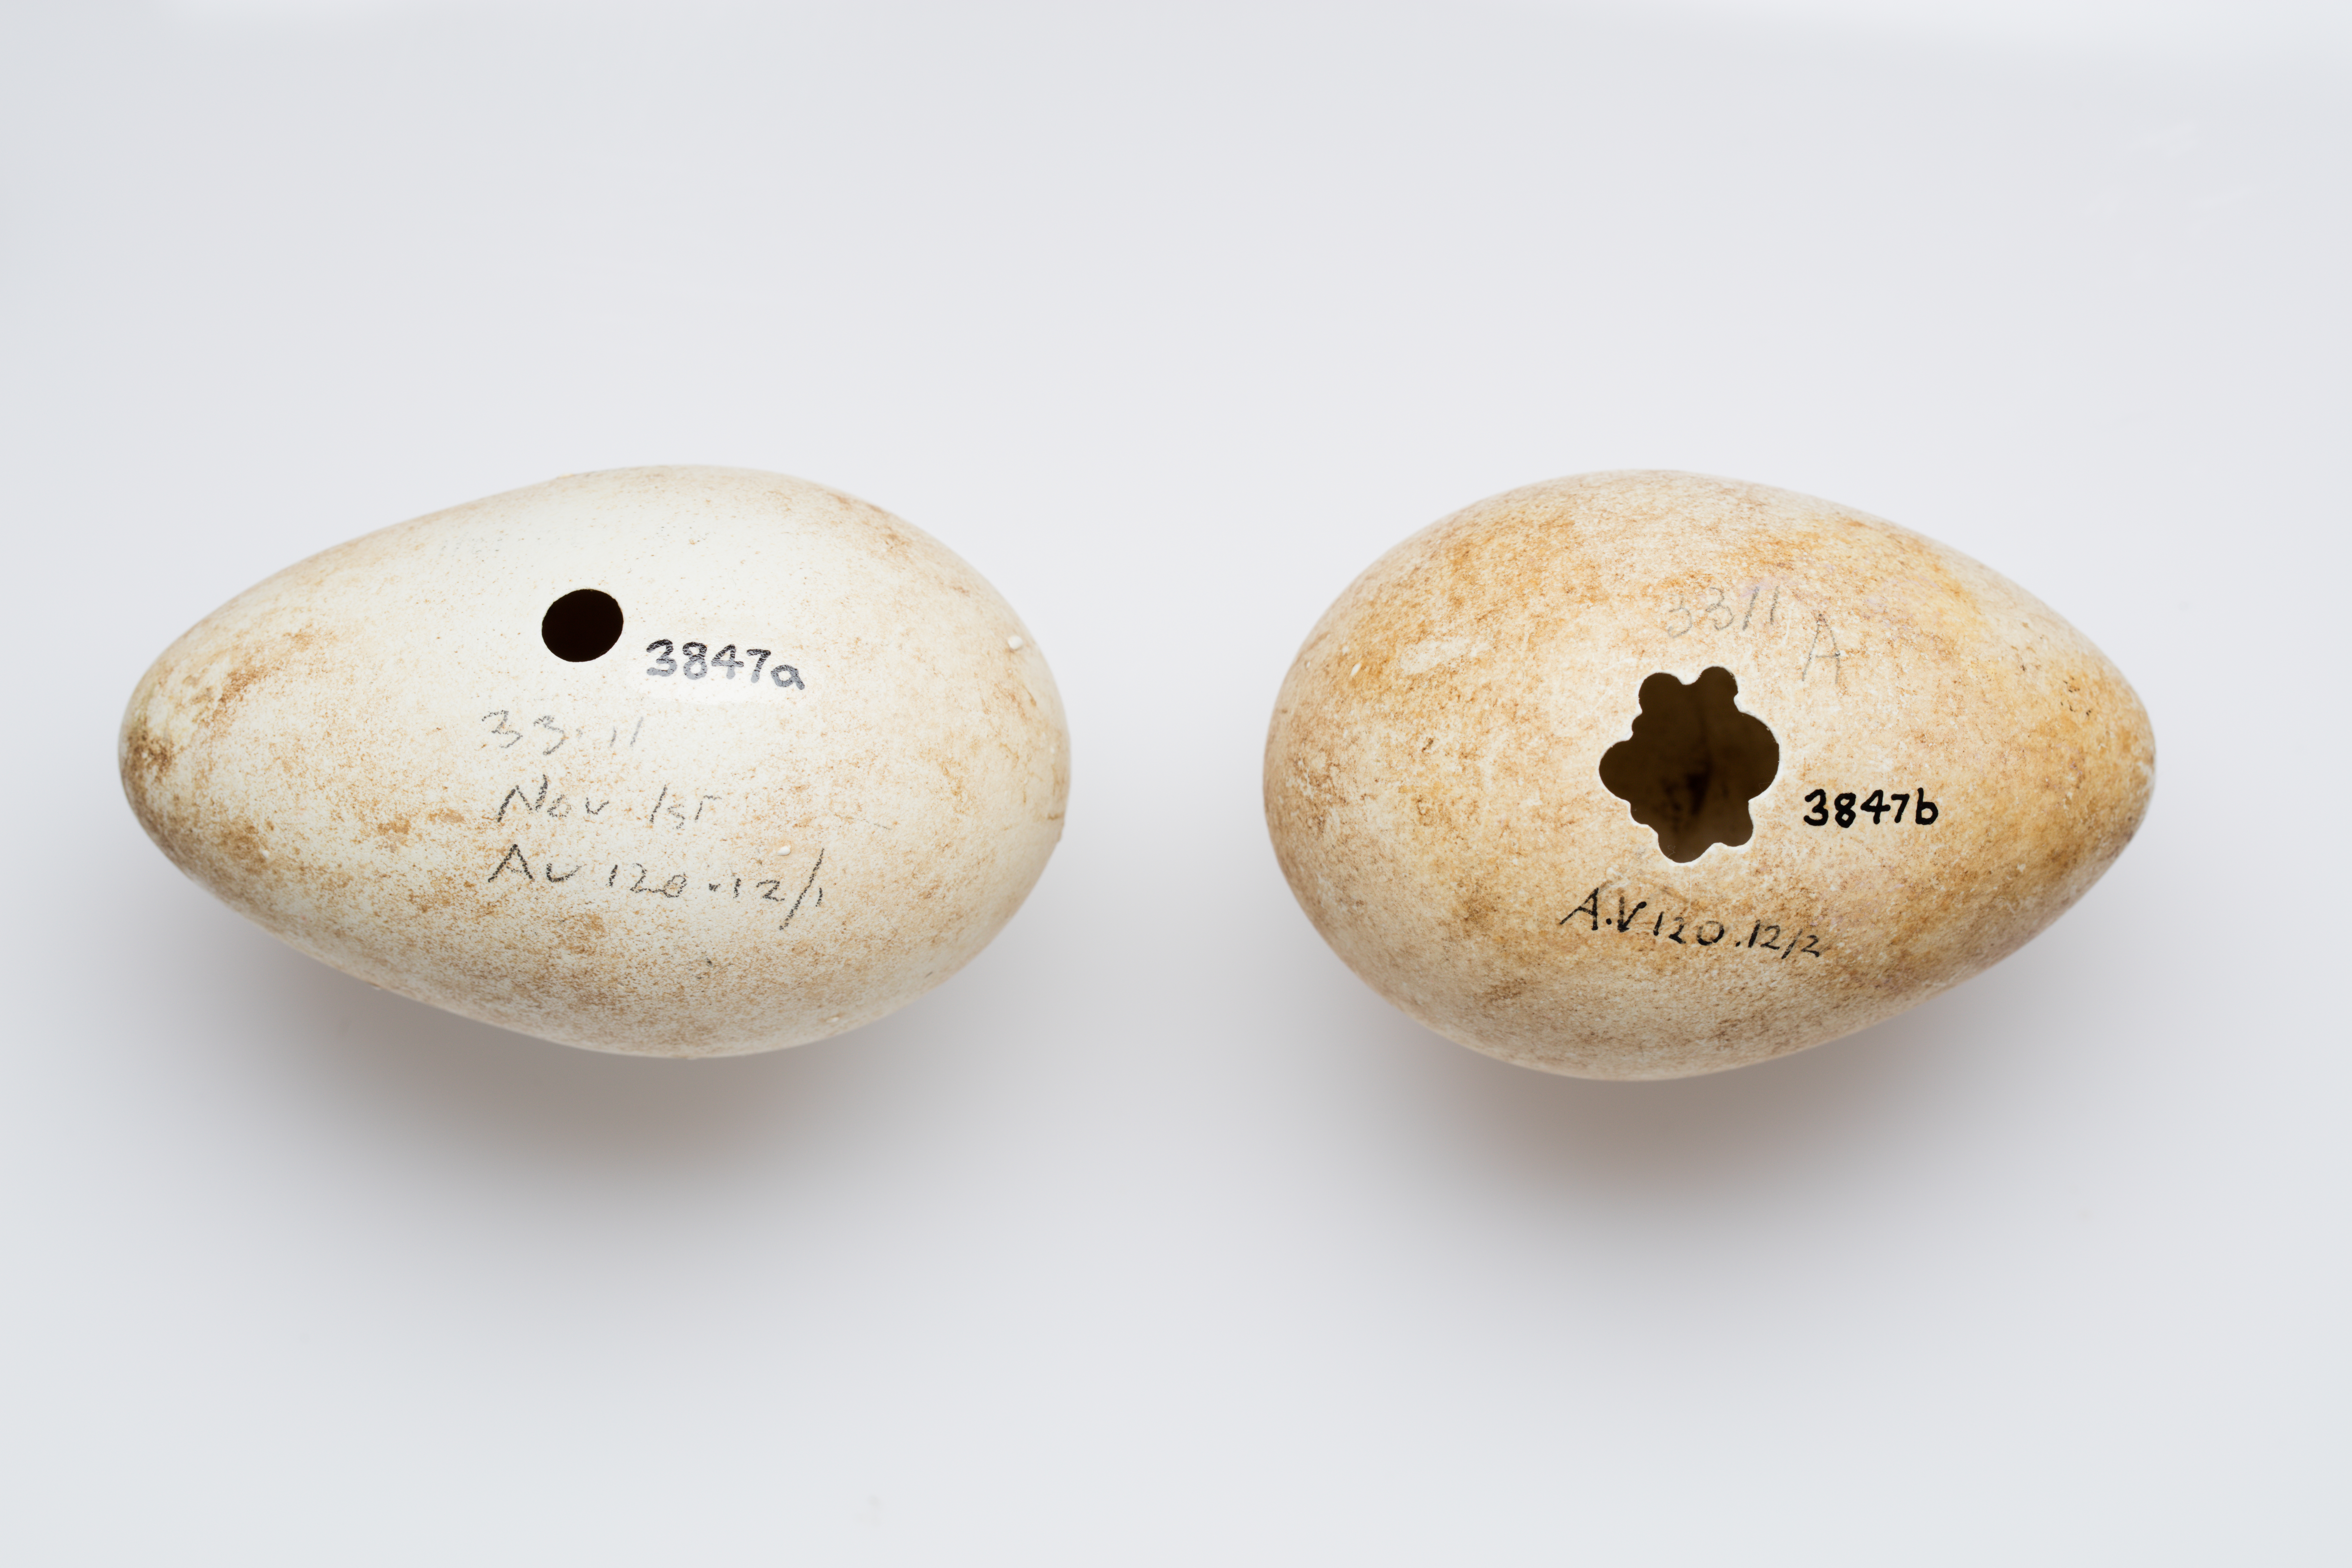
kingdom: Animalia
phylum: Chordata
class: Aves
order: Sphenisciformes
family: Spheniscidae
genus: Megadyptes
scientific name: Megadyptes antipodes
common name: Yellow-eyed penguin
